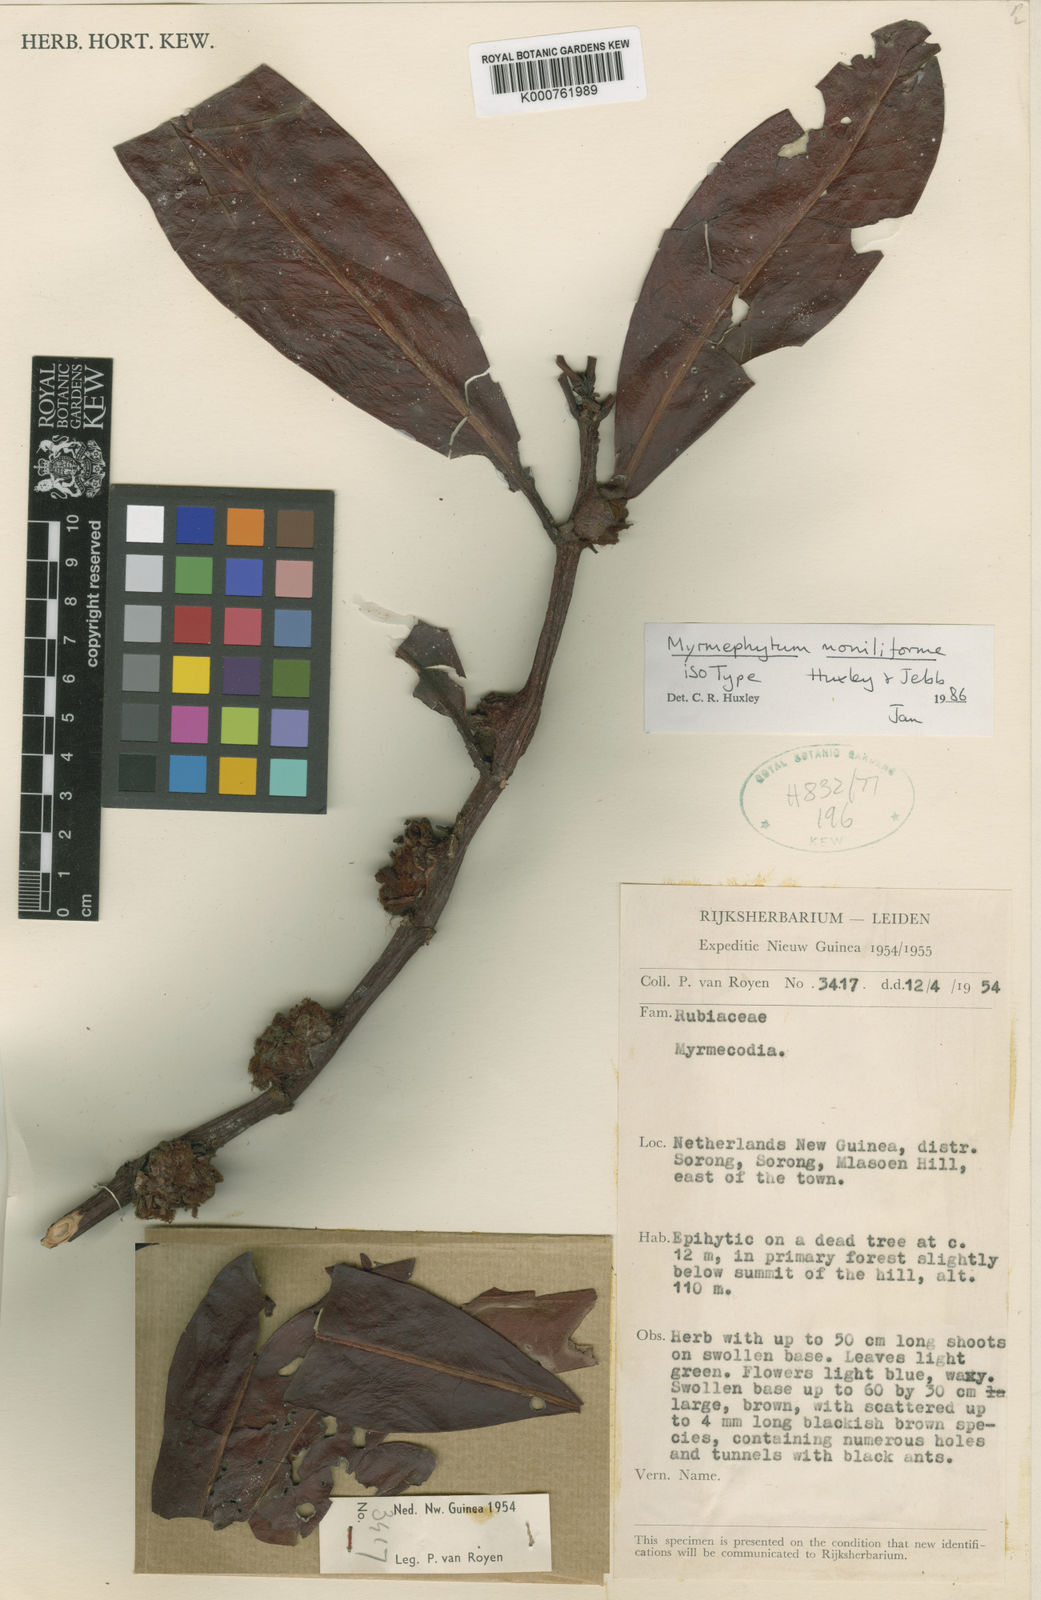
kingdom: Plantae
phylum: Tracheophyta
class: Magnoliopsida
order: Gentianales
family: Rubiaceae
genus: Myrmephytum
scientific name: Myrmephytum moniliforme
